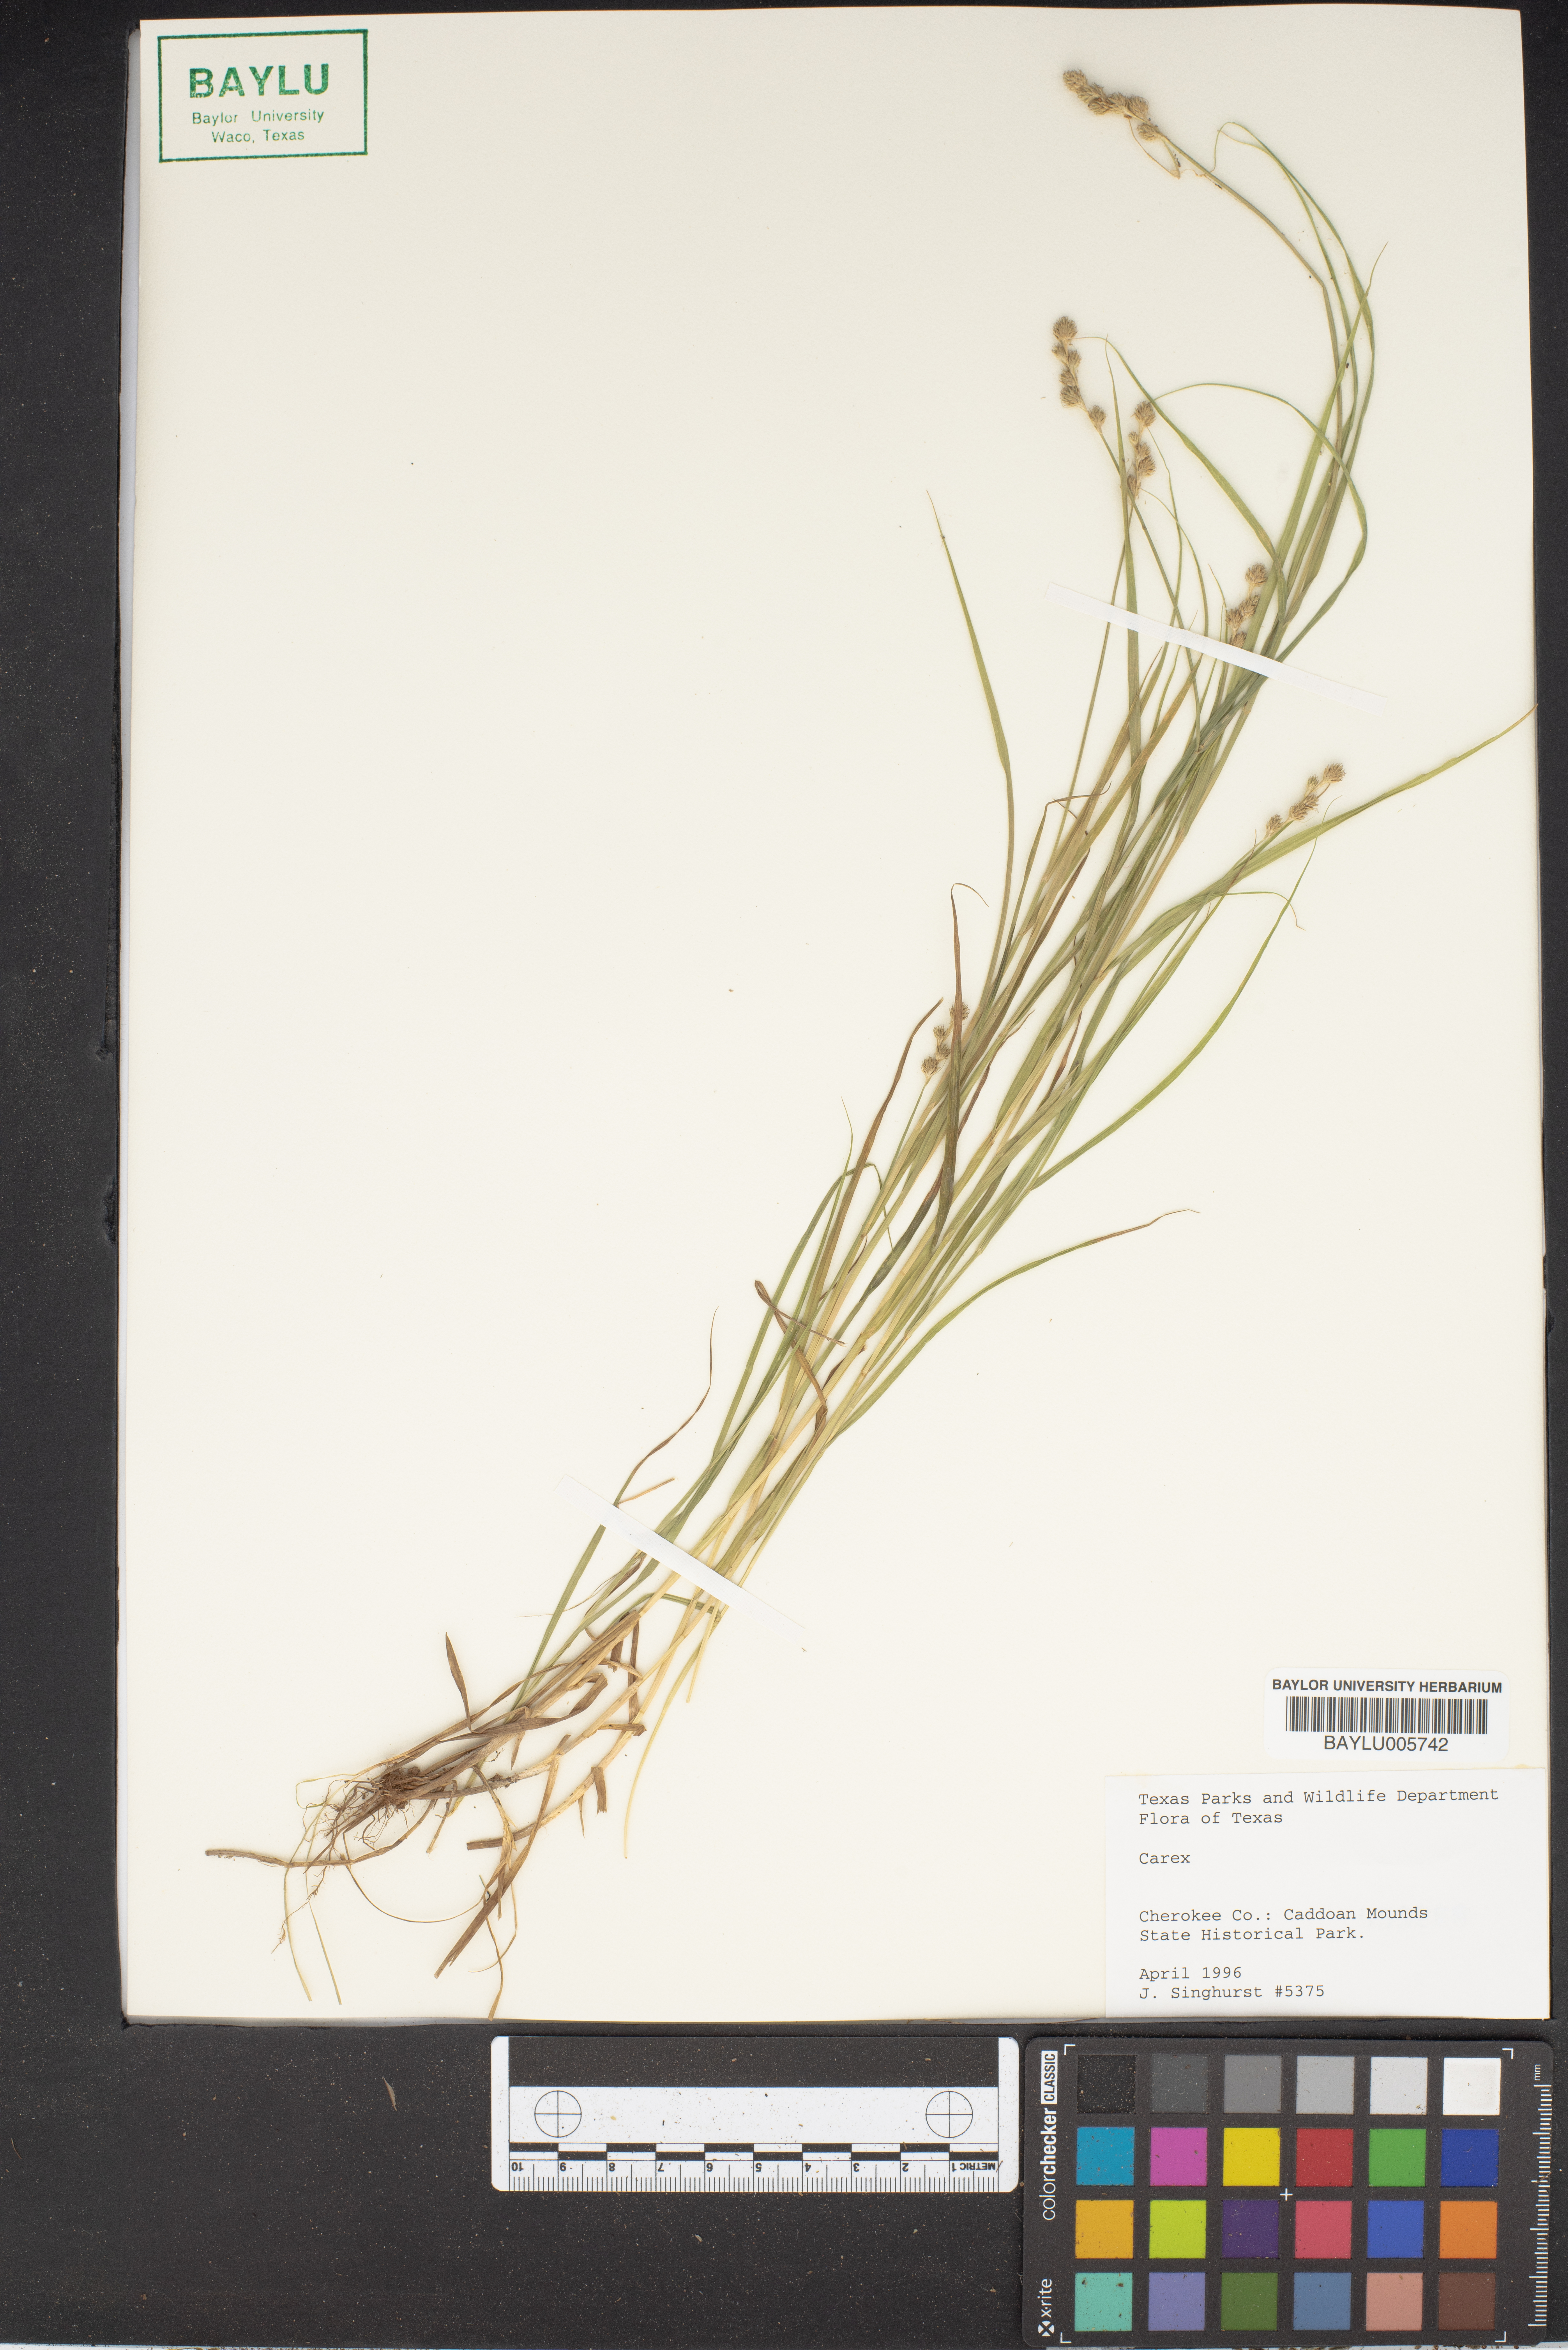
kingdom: Plantae
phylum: Tracheophyta
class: Liliopsida
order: Poales
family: Cyperaceae
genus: Carex
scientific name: Carex
